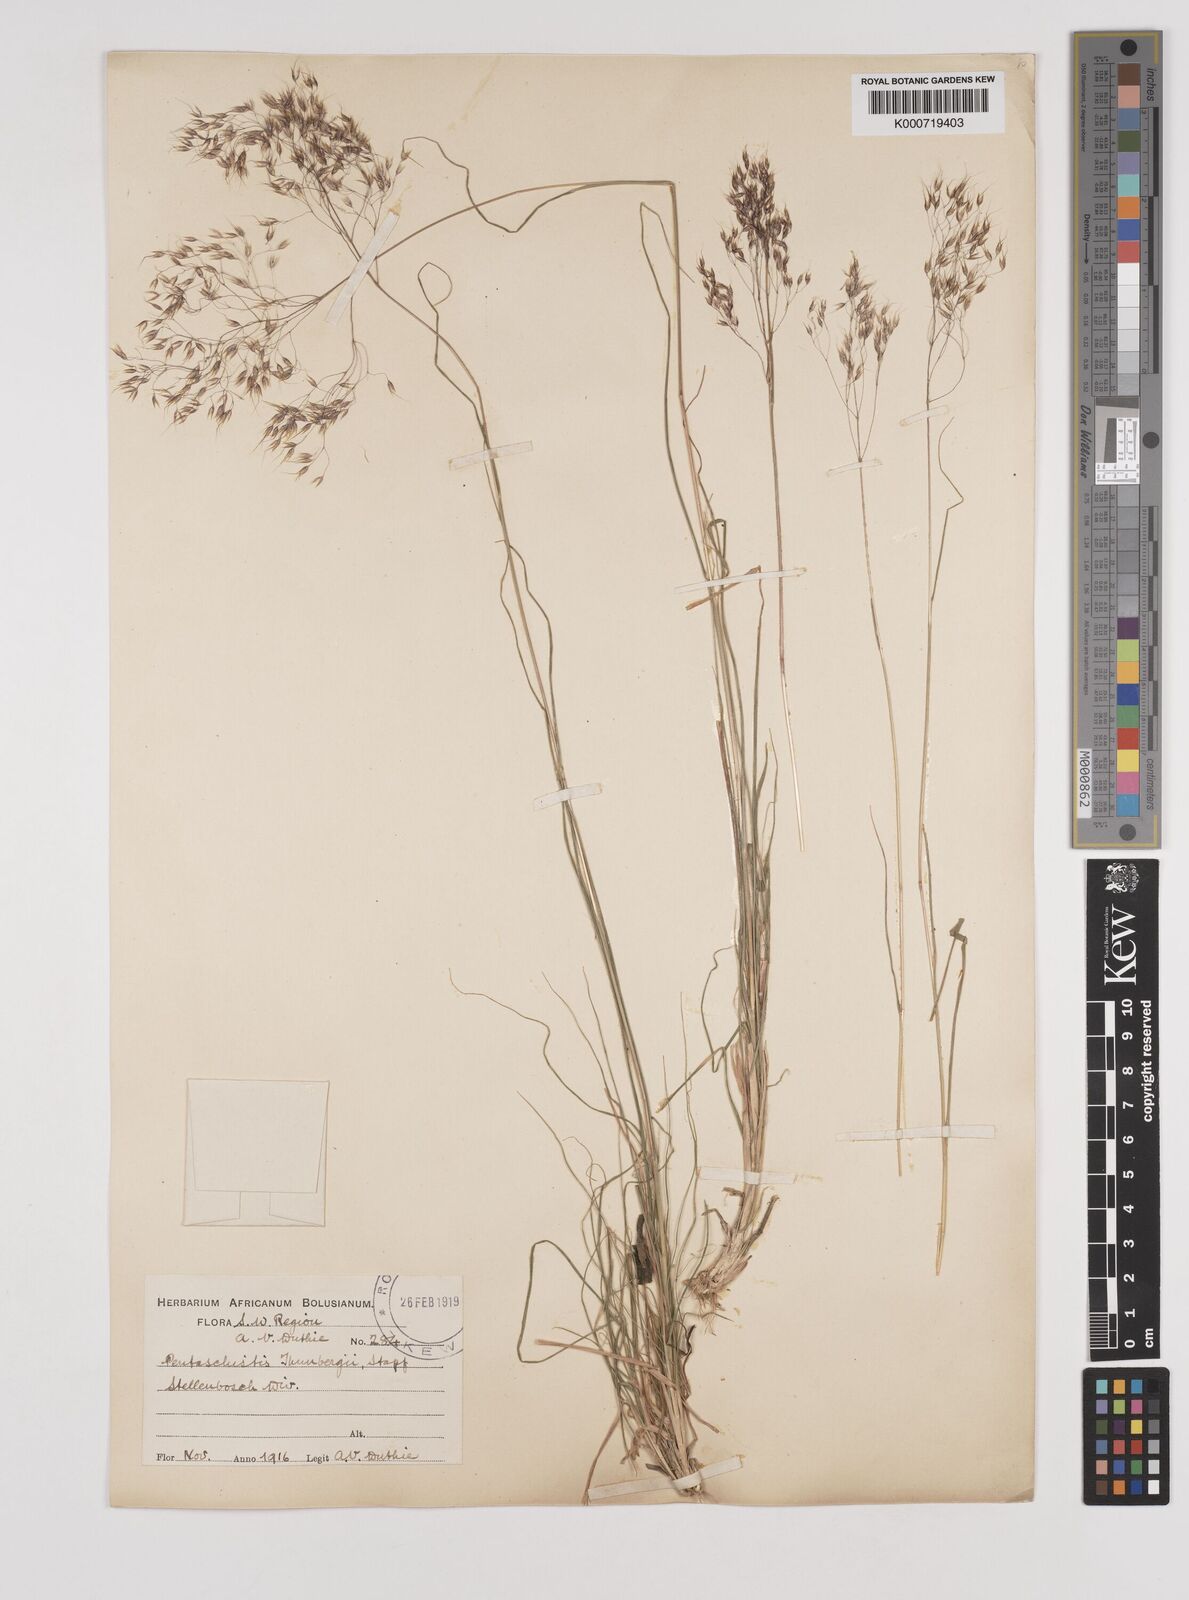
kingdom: Plantae
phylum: Tracheophyta
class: Liliopsida
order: Poales
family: Poaceae
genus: Pentameris
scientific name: Pentameris triseta
